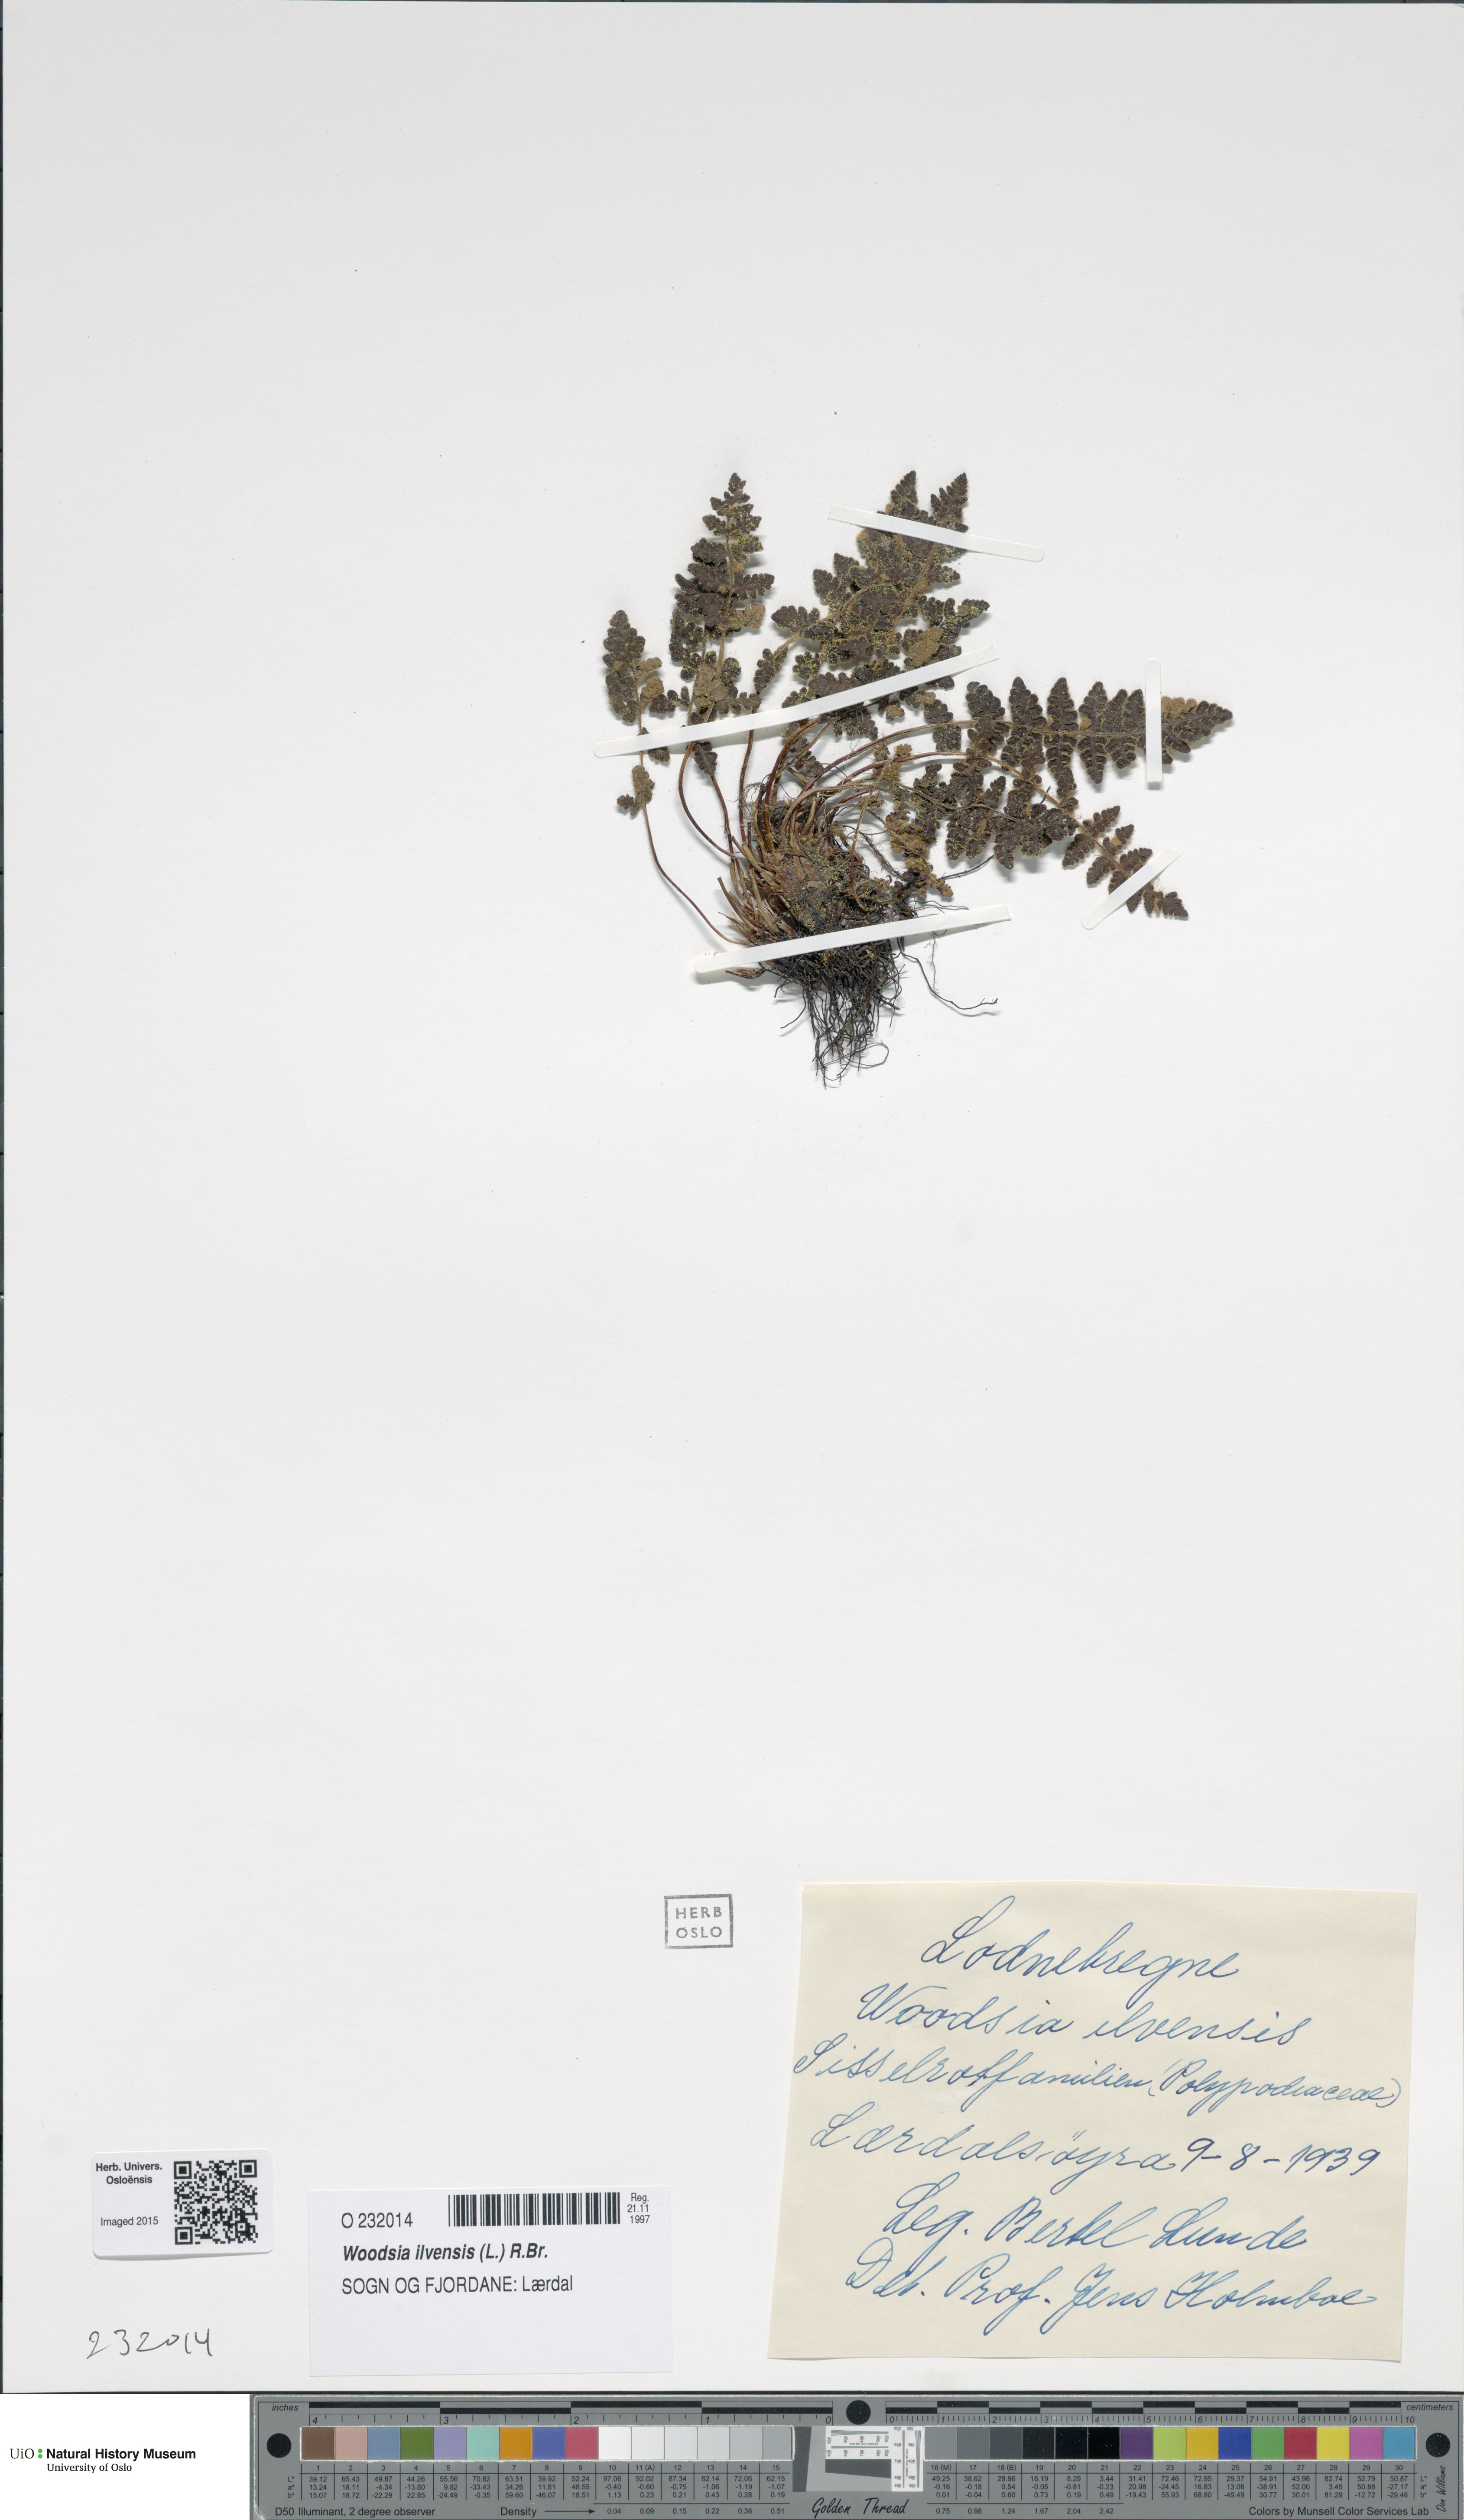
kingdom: Plantae
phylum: Tracheophyta
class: Polypodiopsida
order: Polypodiales
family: Woodsiaceae
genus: Woodsia
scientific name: Woodsia ilvensis
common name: Fragrant woodsia
